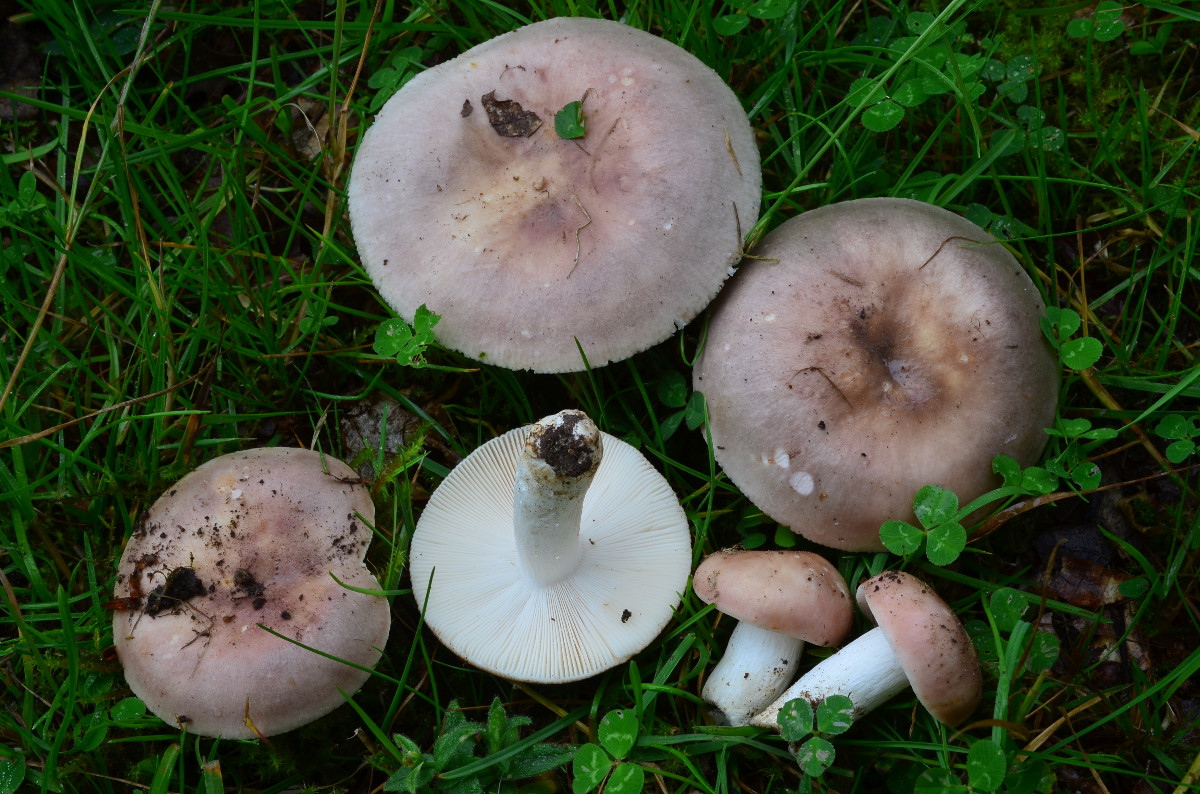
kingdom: Fungi
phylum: Basidiomycota
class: Agaricomycetes
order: Russulales
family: Russulaceae
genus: Russula
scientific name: Russula vesca
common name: spiselig skørhat
